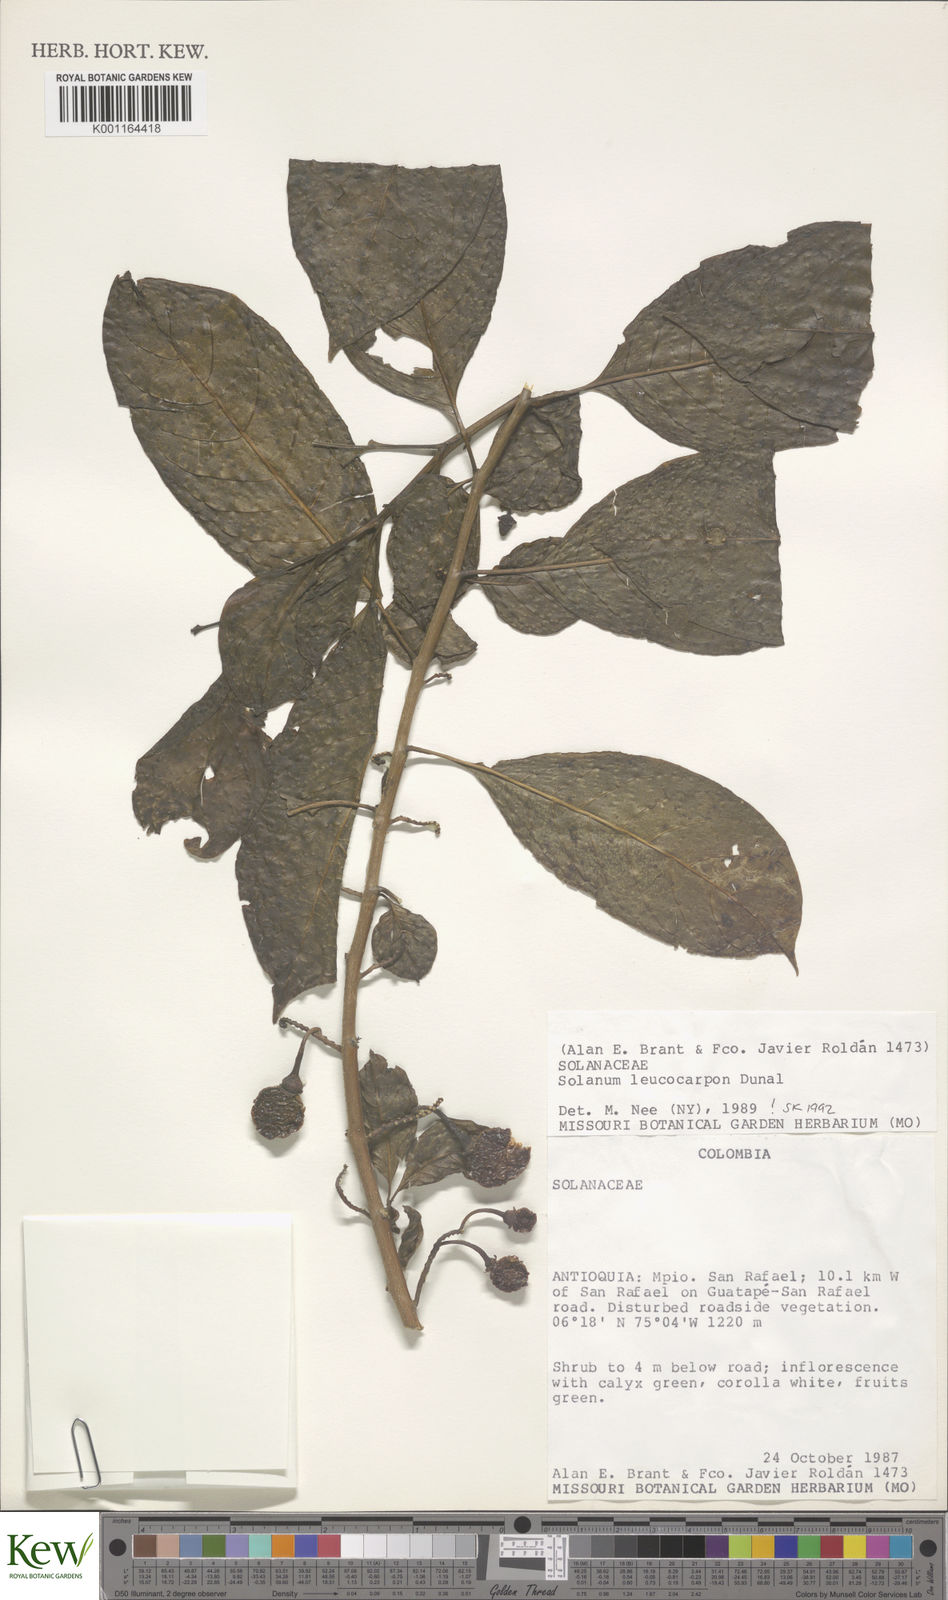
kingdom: Plantae
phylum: Tracheophyta
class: Magnoliopsida
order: Solanales
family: Solanaceae
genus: Solanum
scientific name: Solanum leucocarpon
